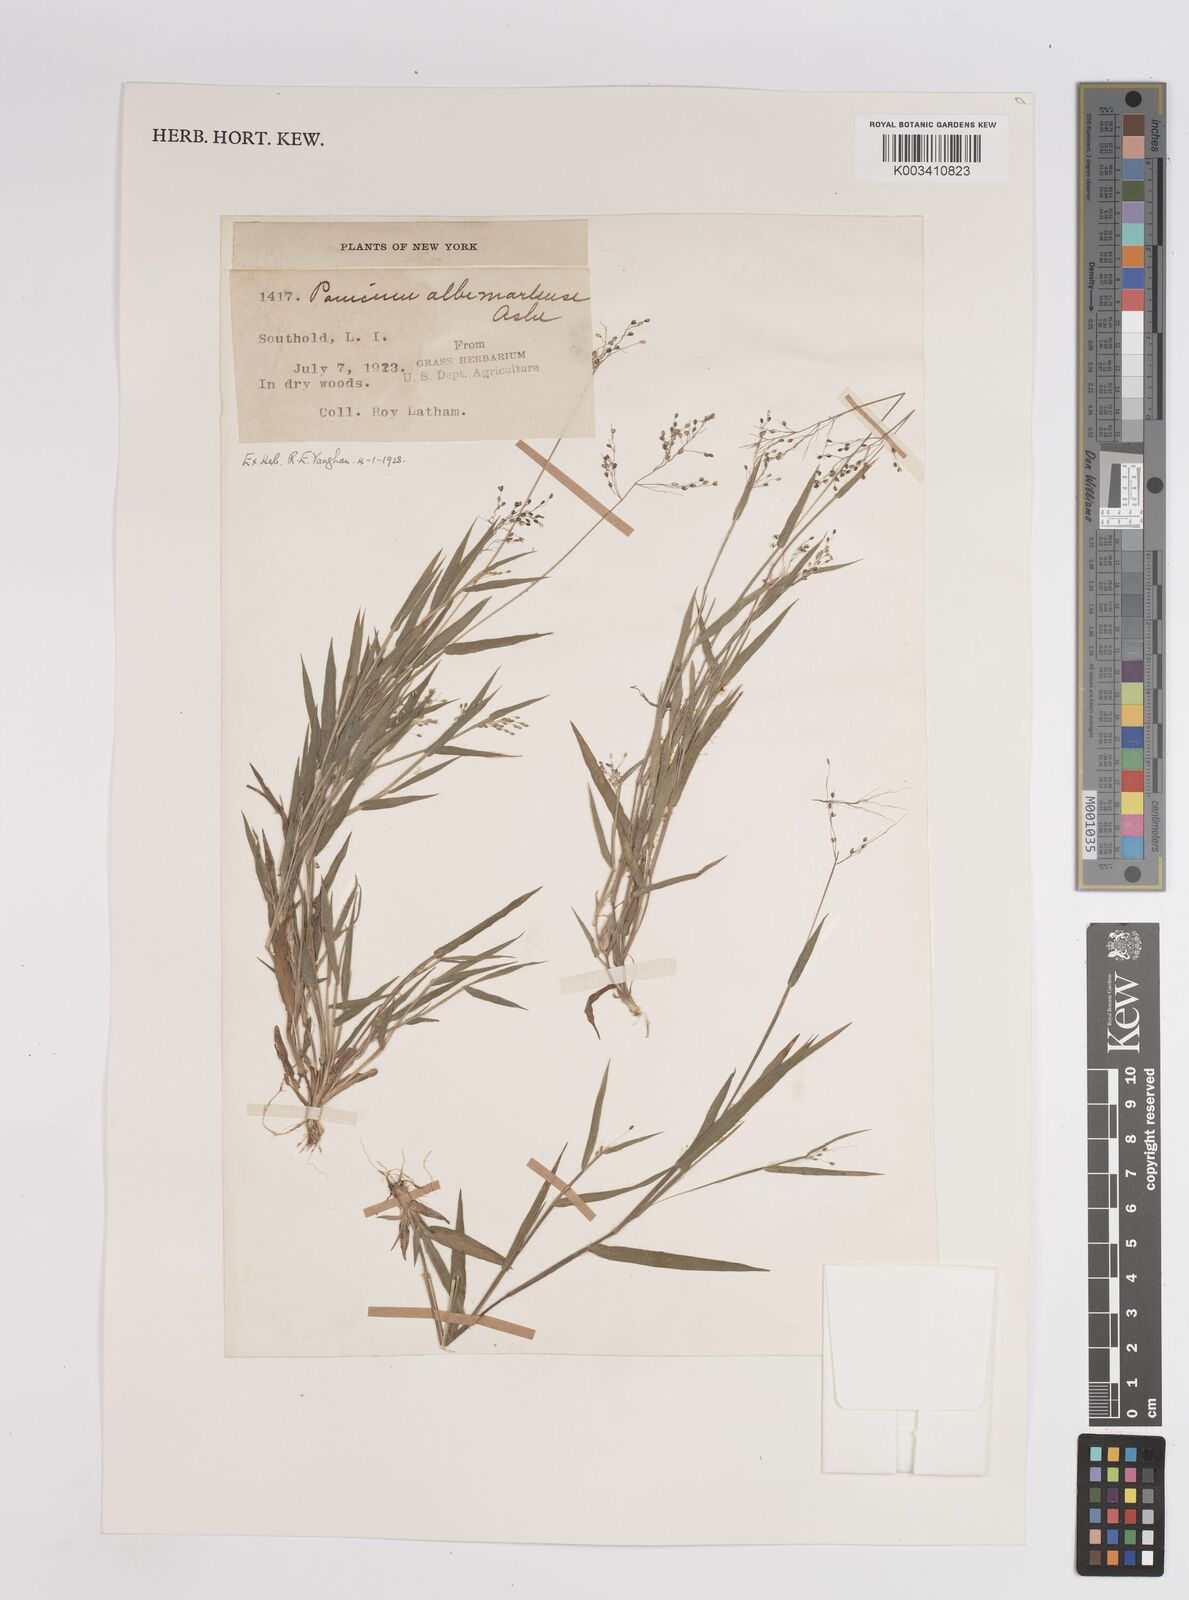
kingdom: Plantae
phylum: Tracheophyta
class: Liliopsida
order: Poales
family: Poaceae
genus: Dichanthelium
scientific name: Dichanthelium implicatum
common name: Slender-stemmed panicgrass
